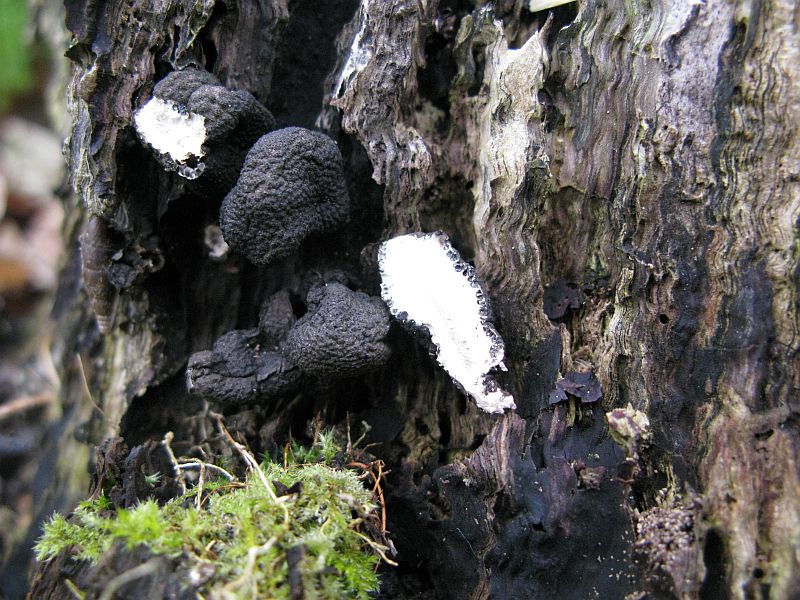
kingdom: Fungi
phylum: Ascomycota
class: Sordariomycetes
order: Xylariales
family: Xylariaceae
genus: Xylaria
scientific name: Xylaria polymorpha
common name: kølle-stødsvamp
